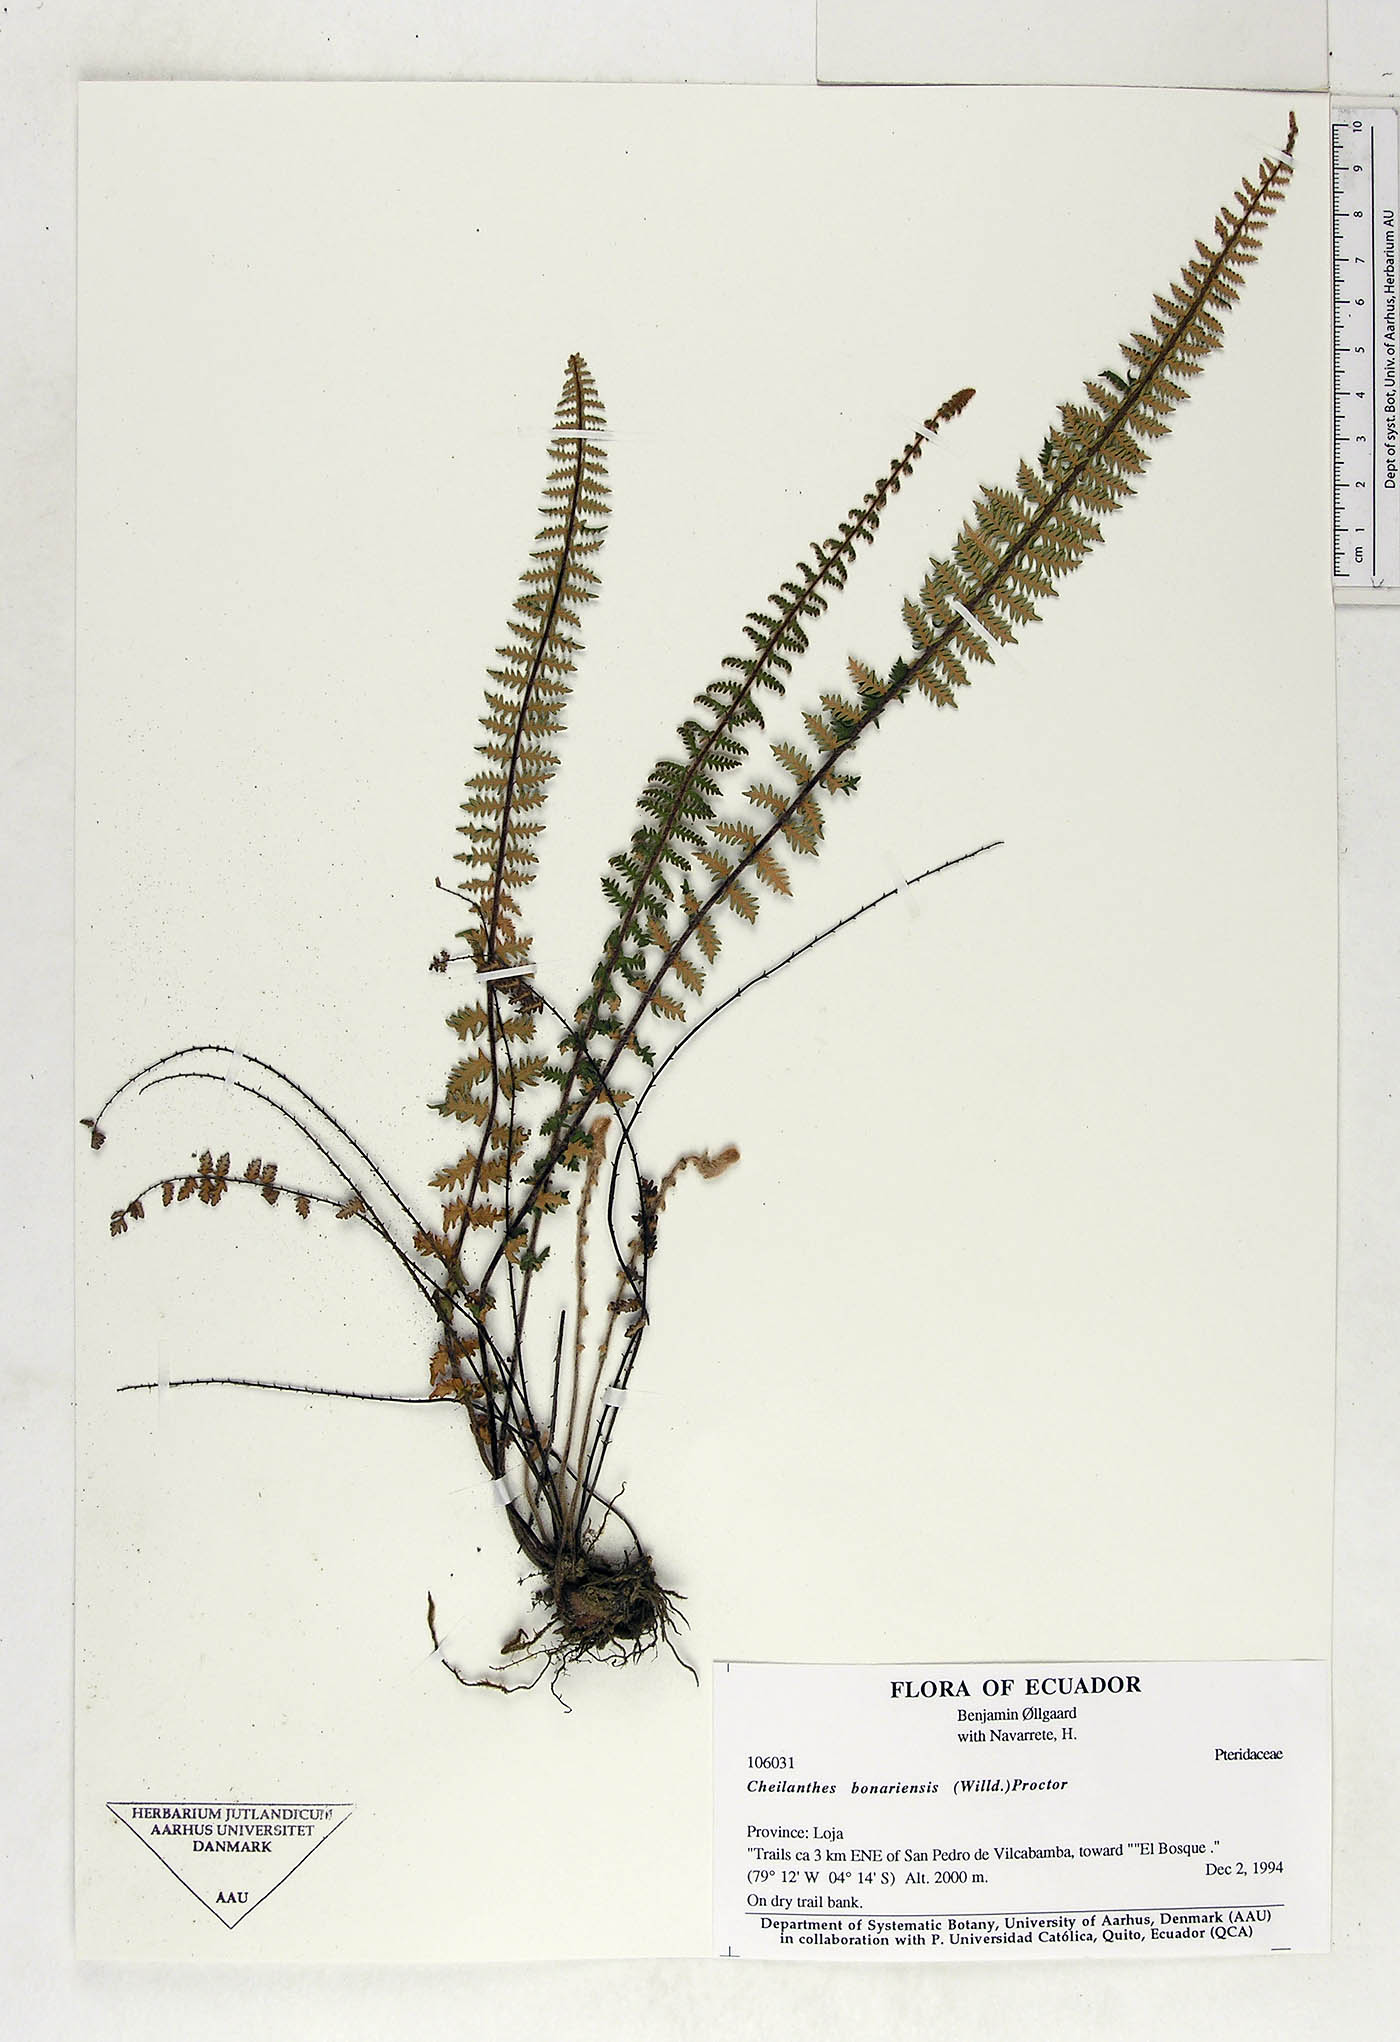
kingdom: Plantae
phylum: Tracheophyta
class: Polypodiopsida
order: Polypodiales
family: Pteridaceae
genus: Myriopteris
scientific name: Myriopteris aurea
